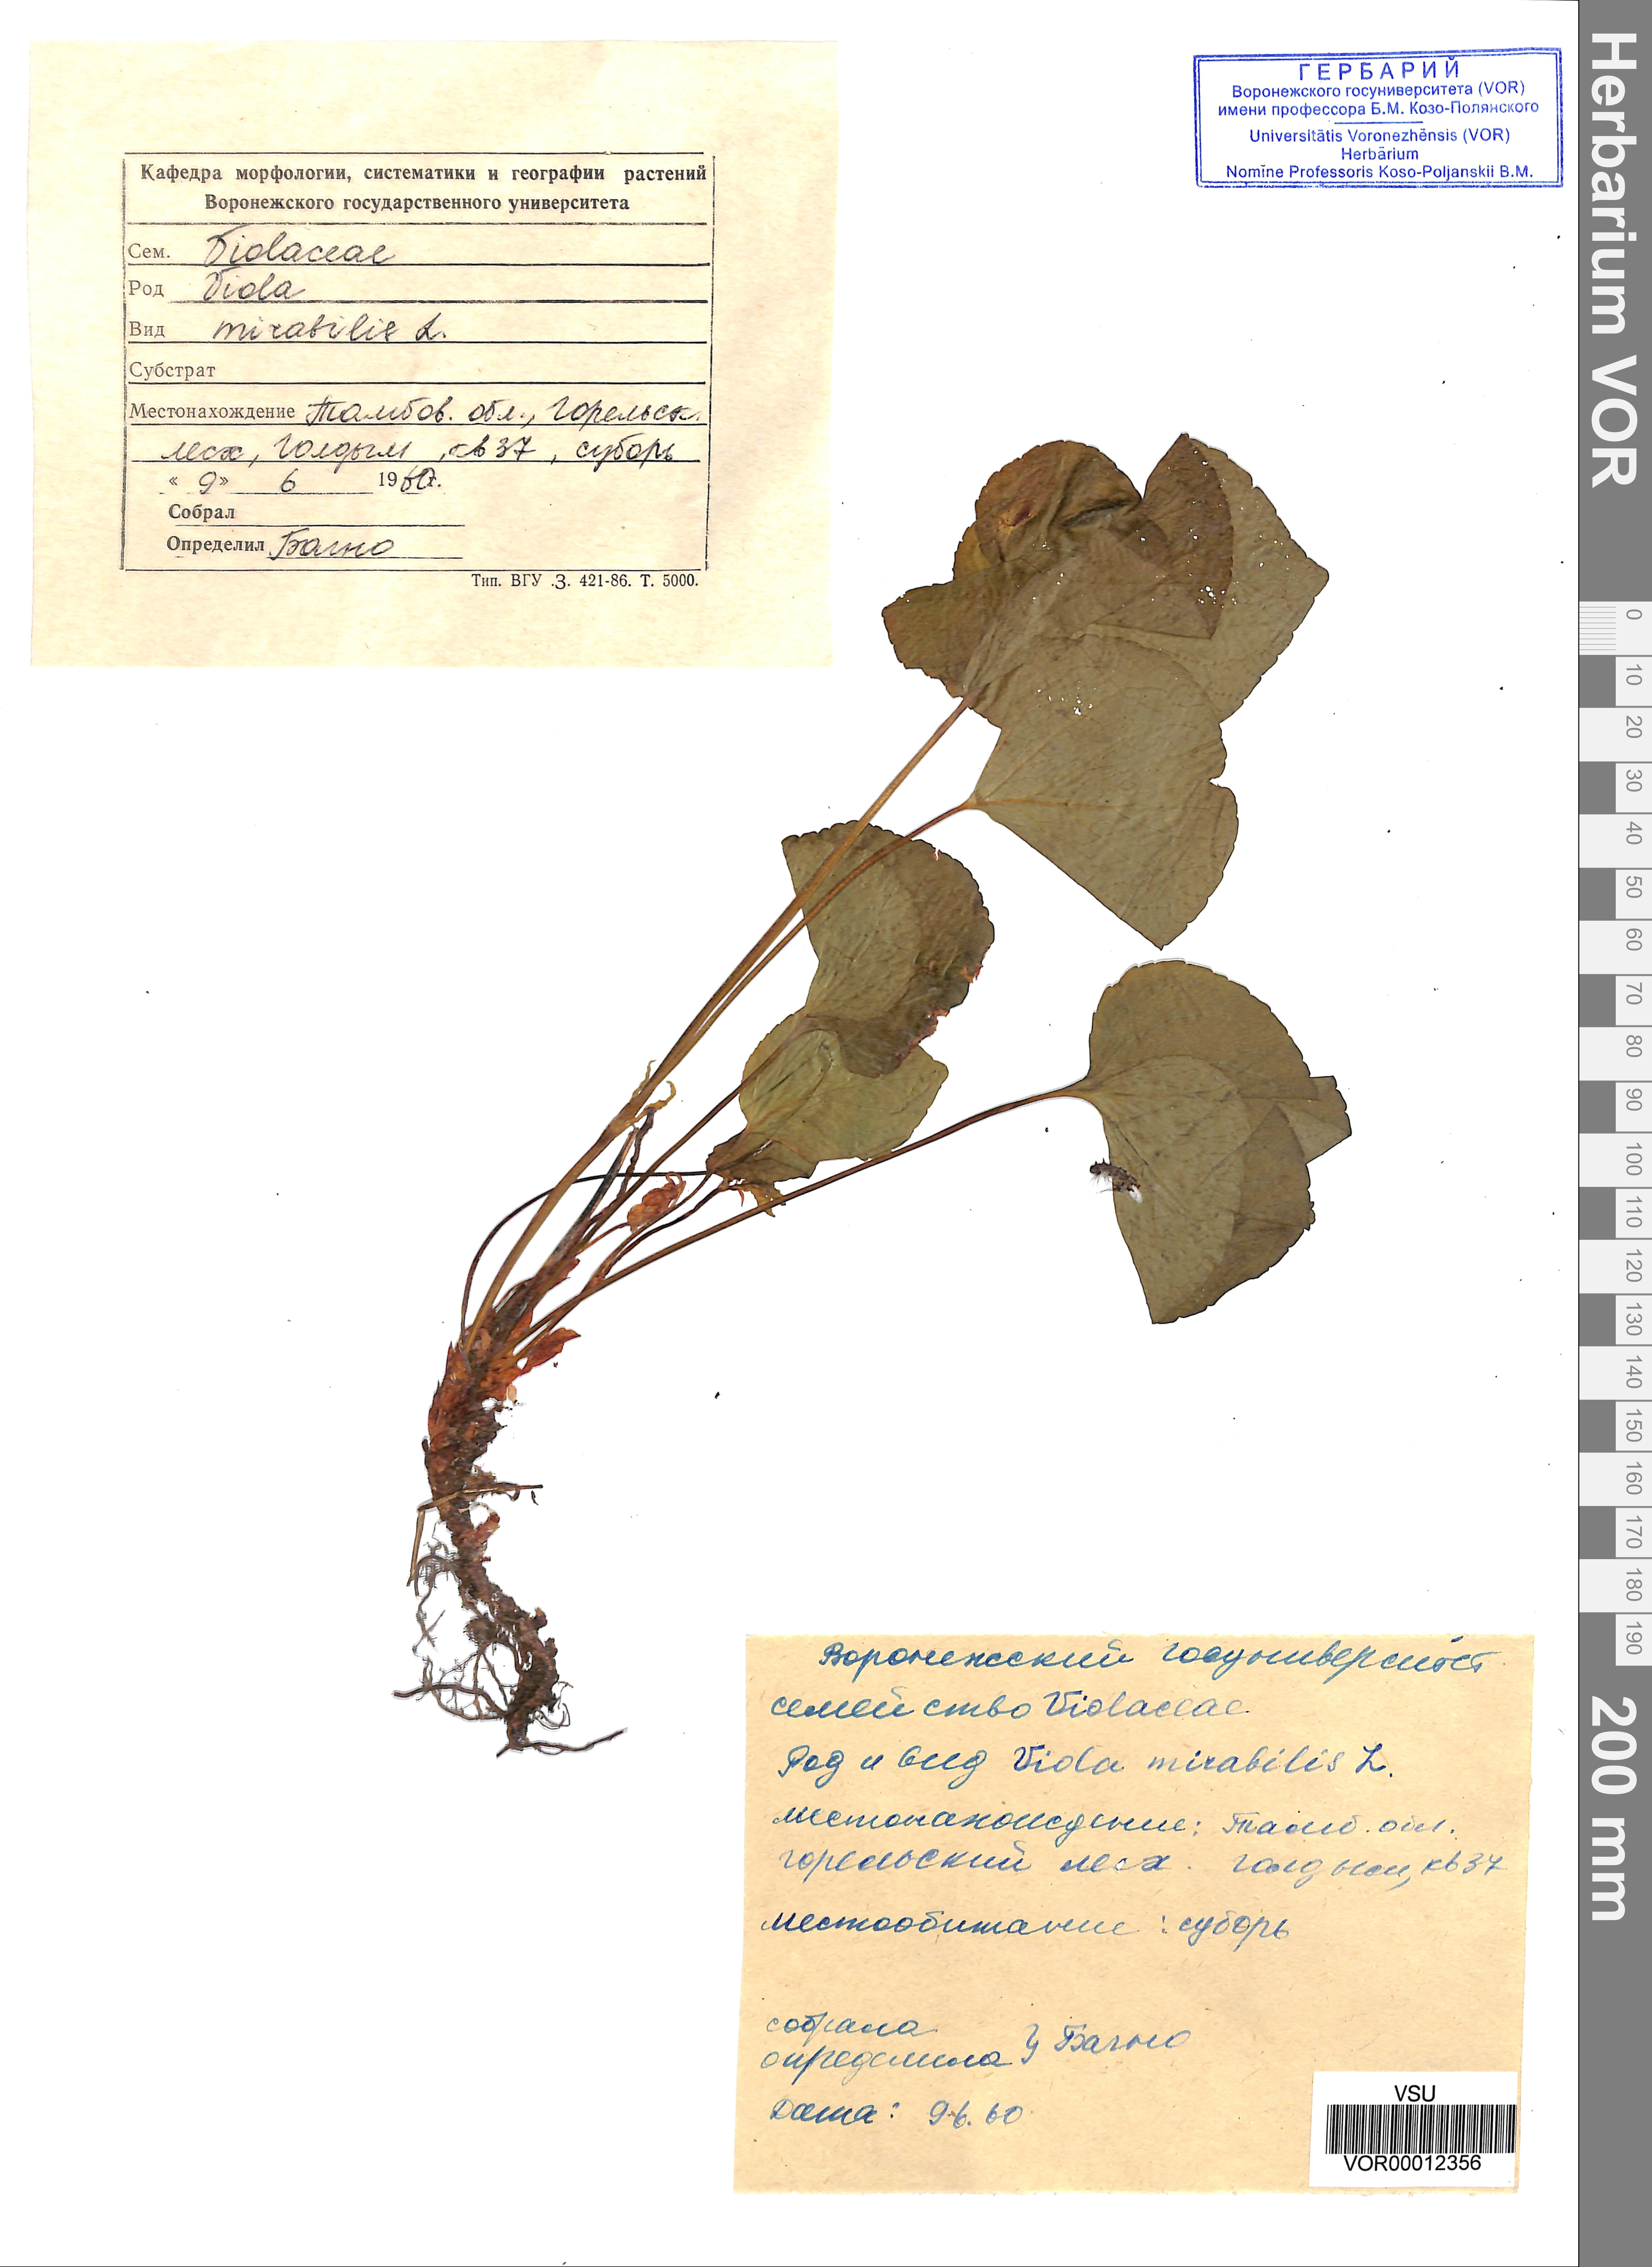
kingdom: Plantae
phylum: Tracheophyta
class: Magnoliopsida
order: Malpighiales
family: Violaceae
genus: Viola
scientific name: Viola mirabilis
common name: Wonder violet
